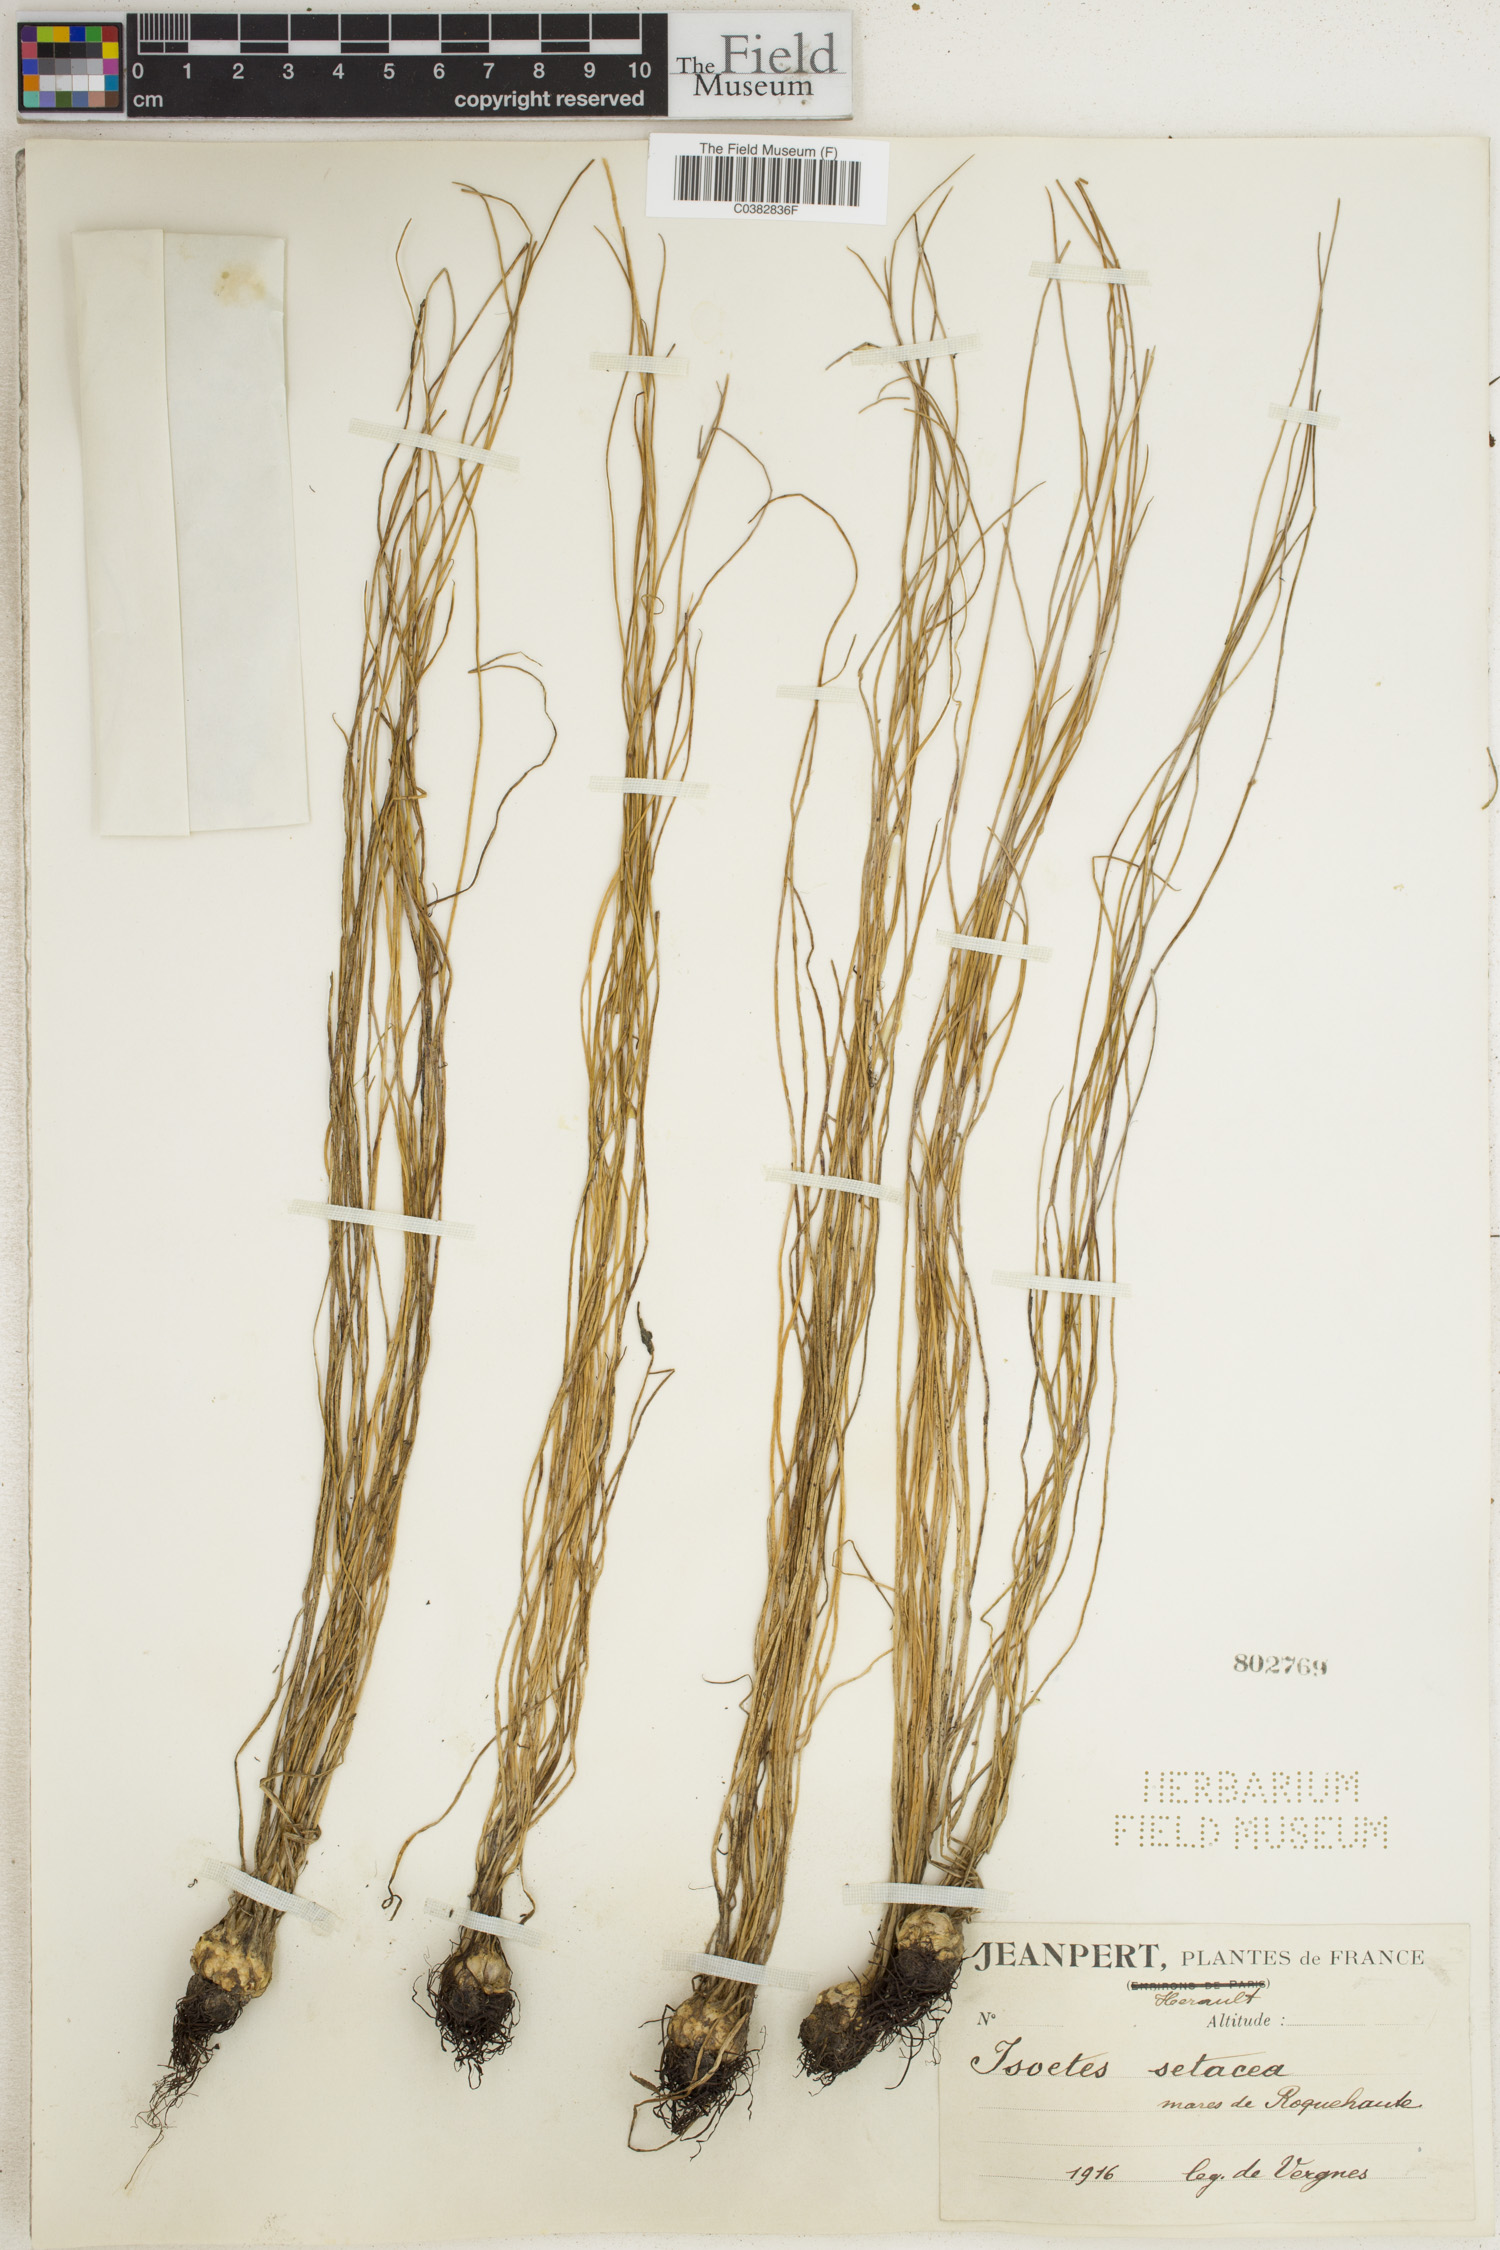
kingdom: Plantae
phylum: Tracheophyta
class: Lycopodiopsida
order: Isoetales
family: Isoetaceae
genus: Isoetes
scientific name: Isoetes lacustris
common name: Common quillwort
